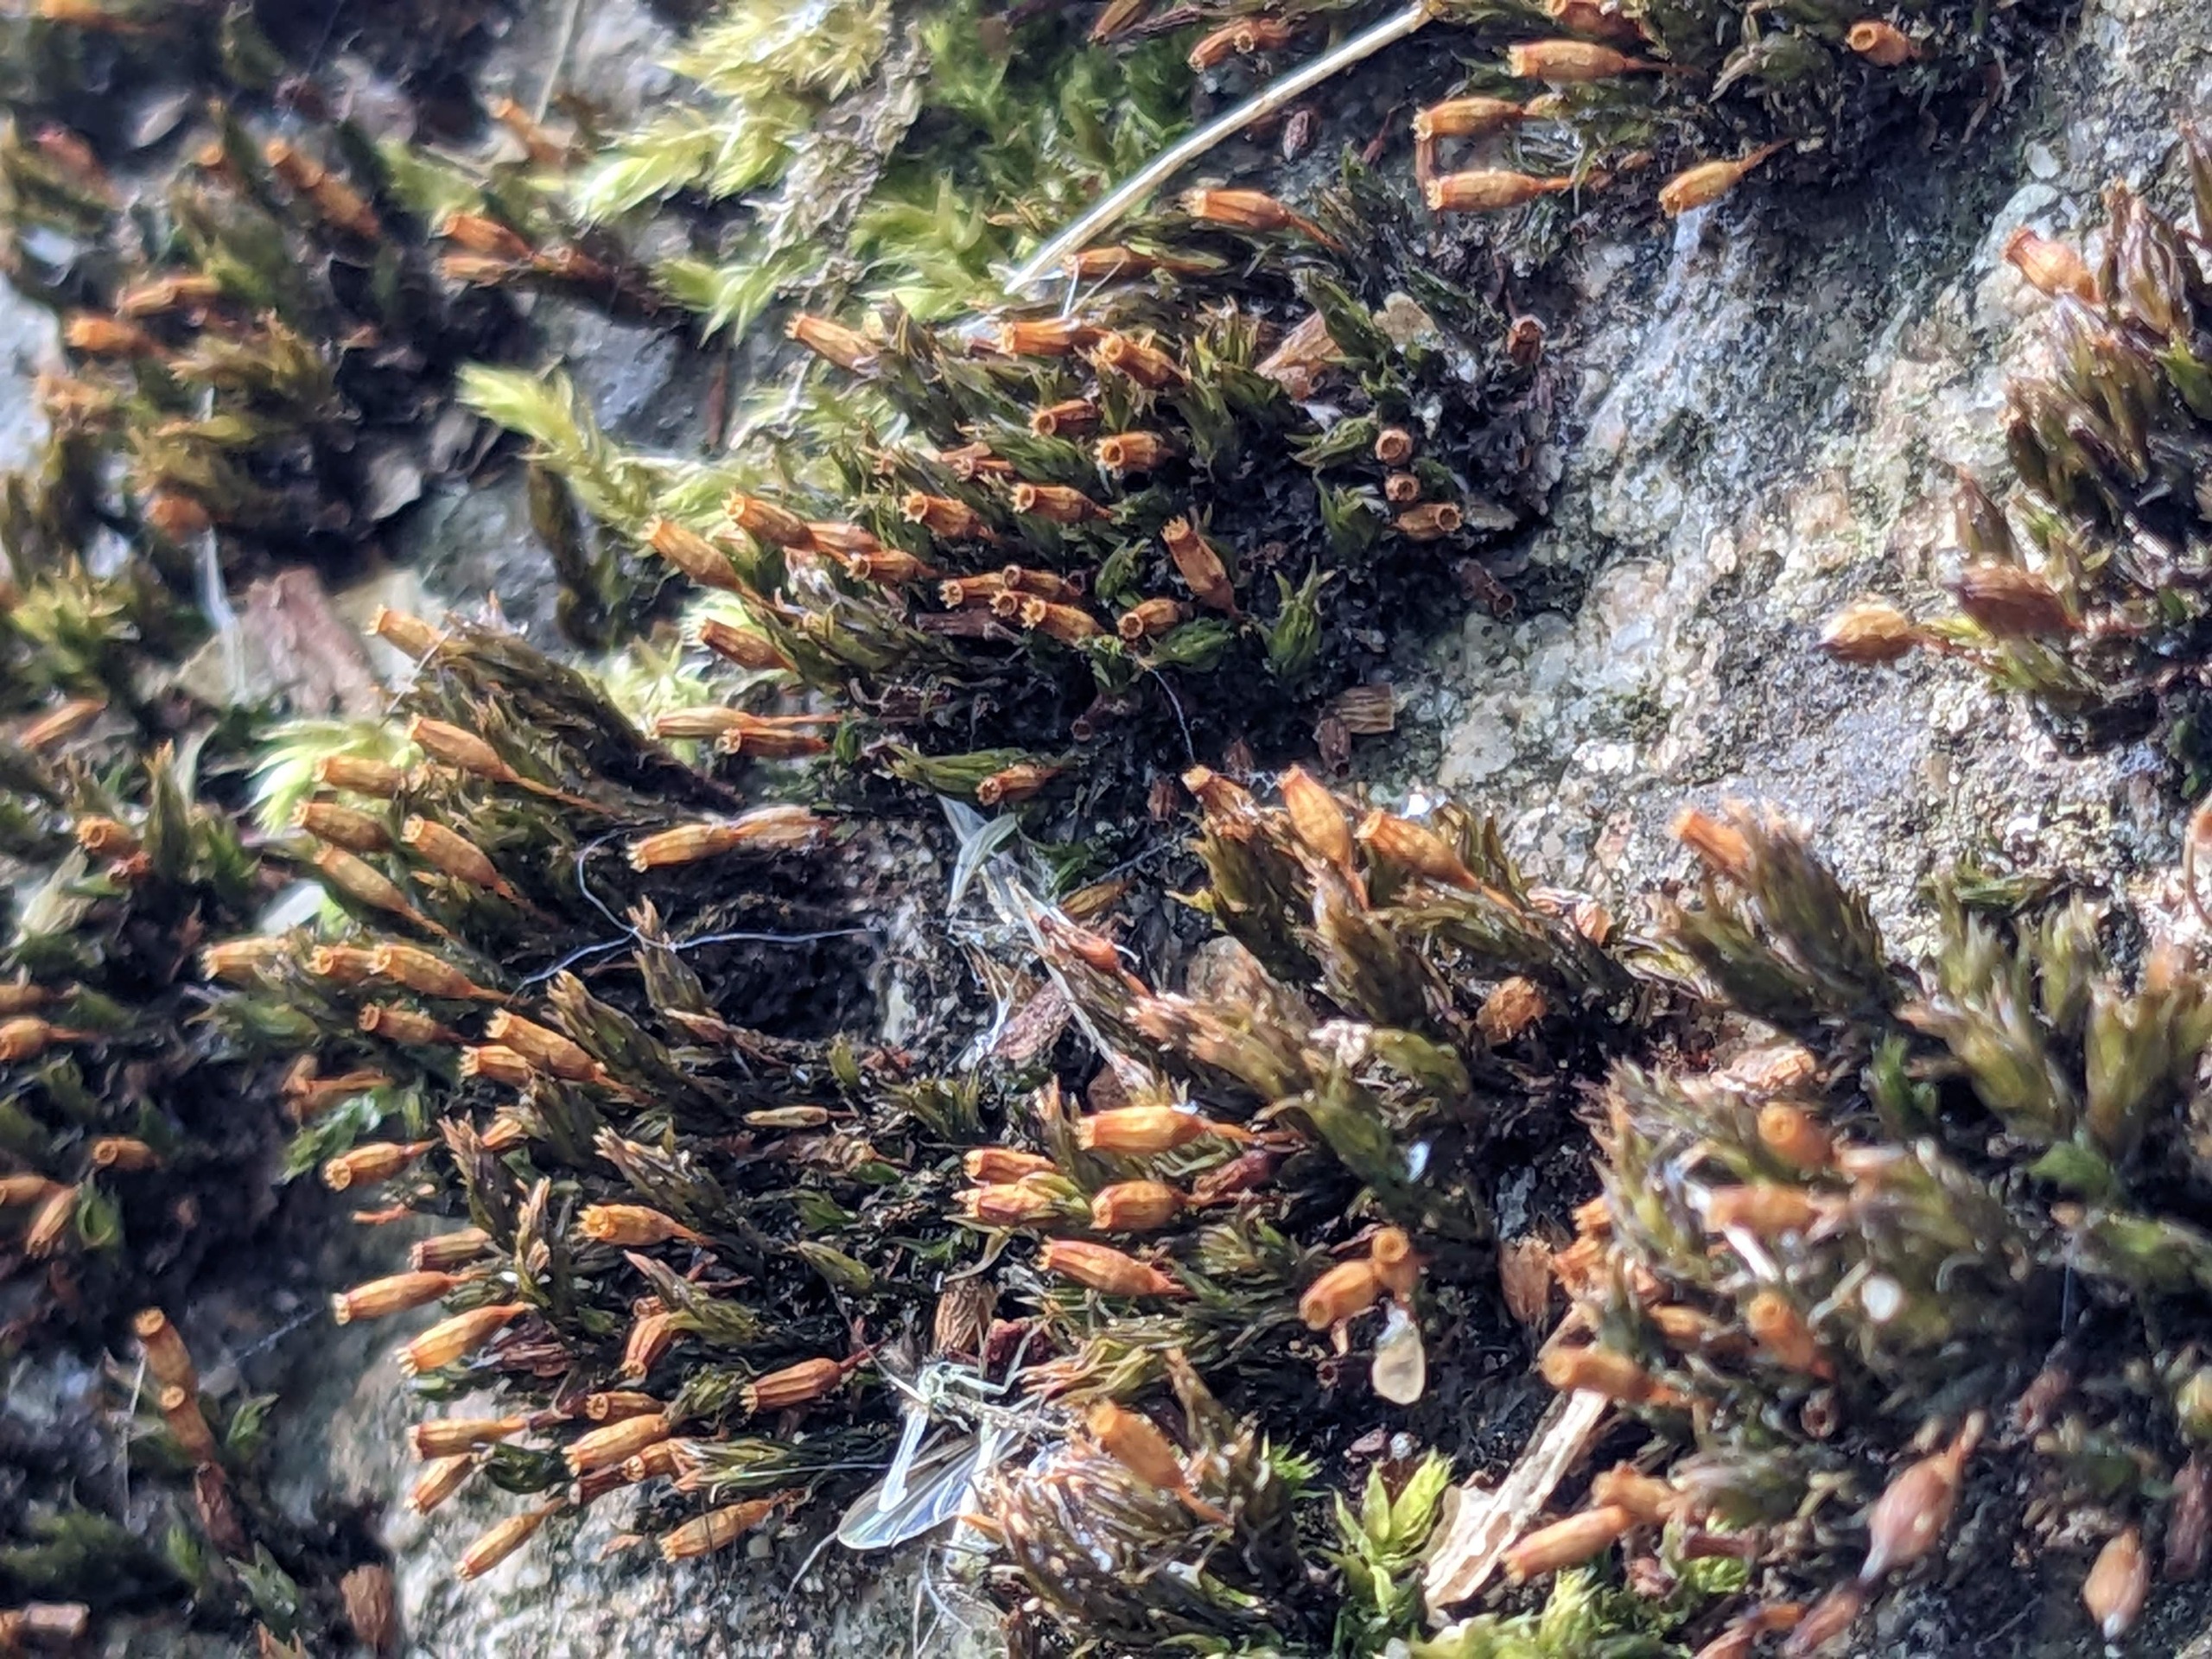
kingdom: Plantae
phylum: Bryophyta
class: Bryopsida
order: Orthotrichales
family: Orthotrichaceae
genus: Orthotrichum
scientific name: Orthotrichum anomalum
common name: Mørk furehætte
